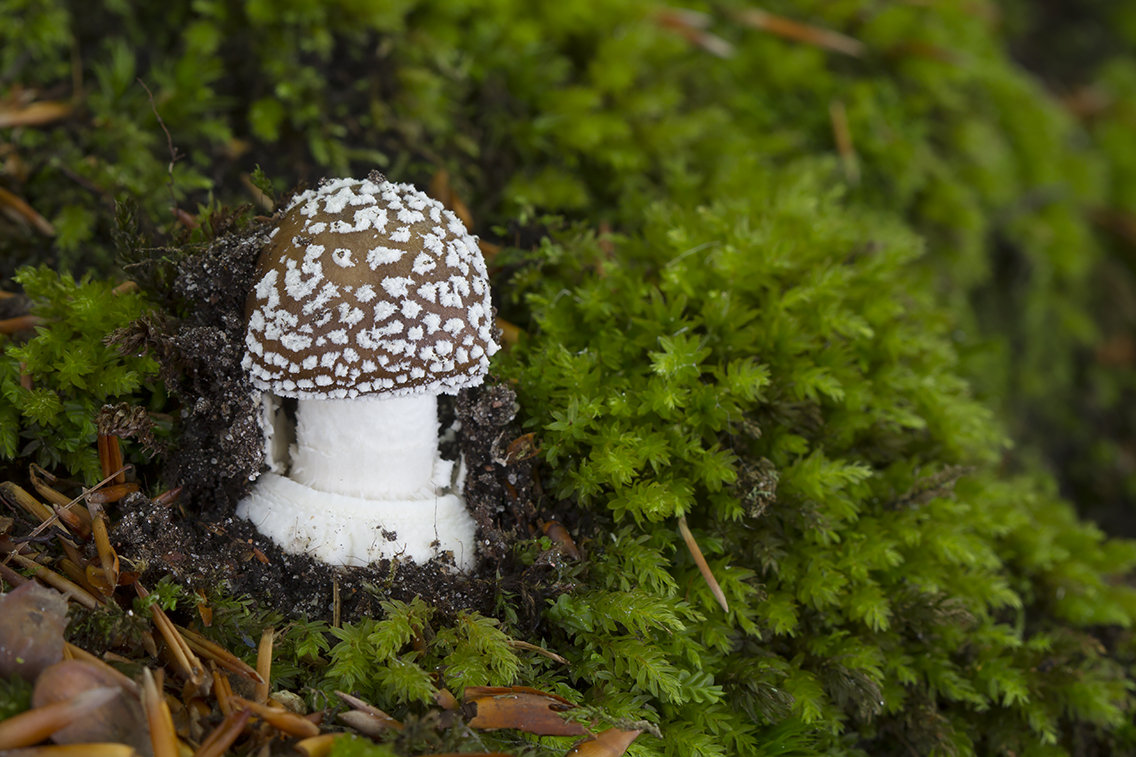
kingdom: Fungi
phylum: Basidiomycota
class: Agaricomycetes
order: Agaricales
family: Amanitaceae
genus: Amanita
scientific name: Amanita pantherina
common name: panter-fluesvamp
